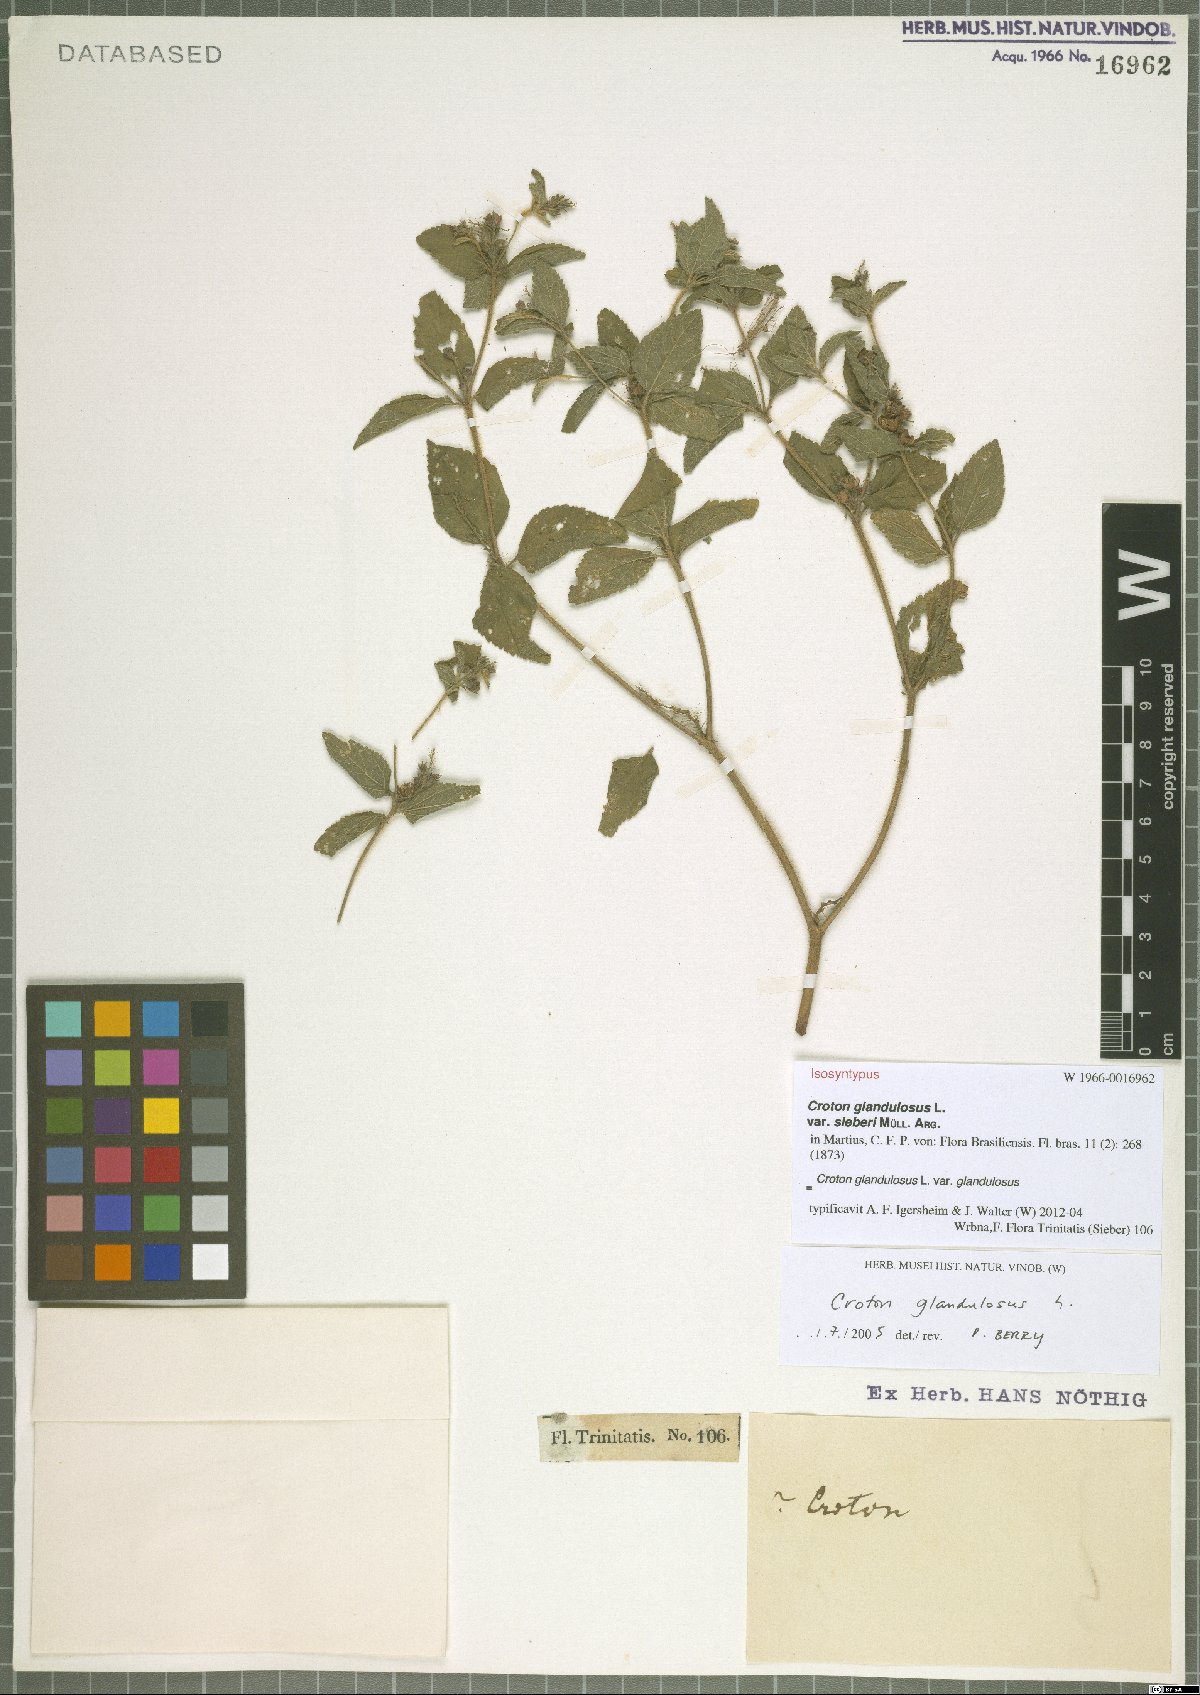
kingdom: Plantae
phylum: Tracheophyta
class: Magnoliopsida
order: Malpighiales
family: Euphorbiaceae
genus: Croton
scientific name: Croton glandulosus
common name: Tropic croton
